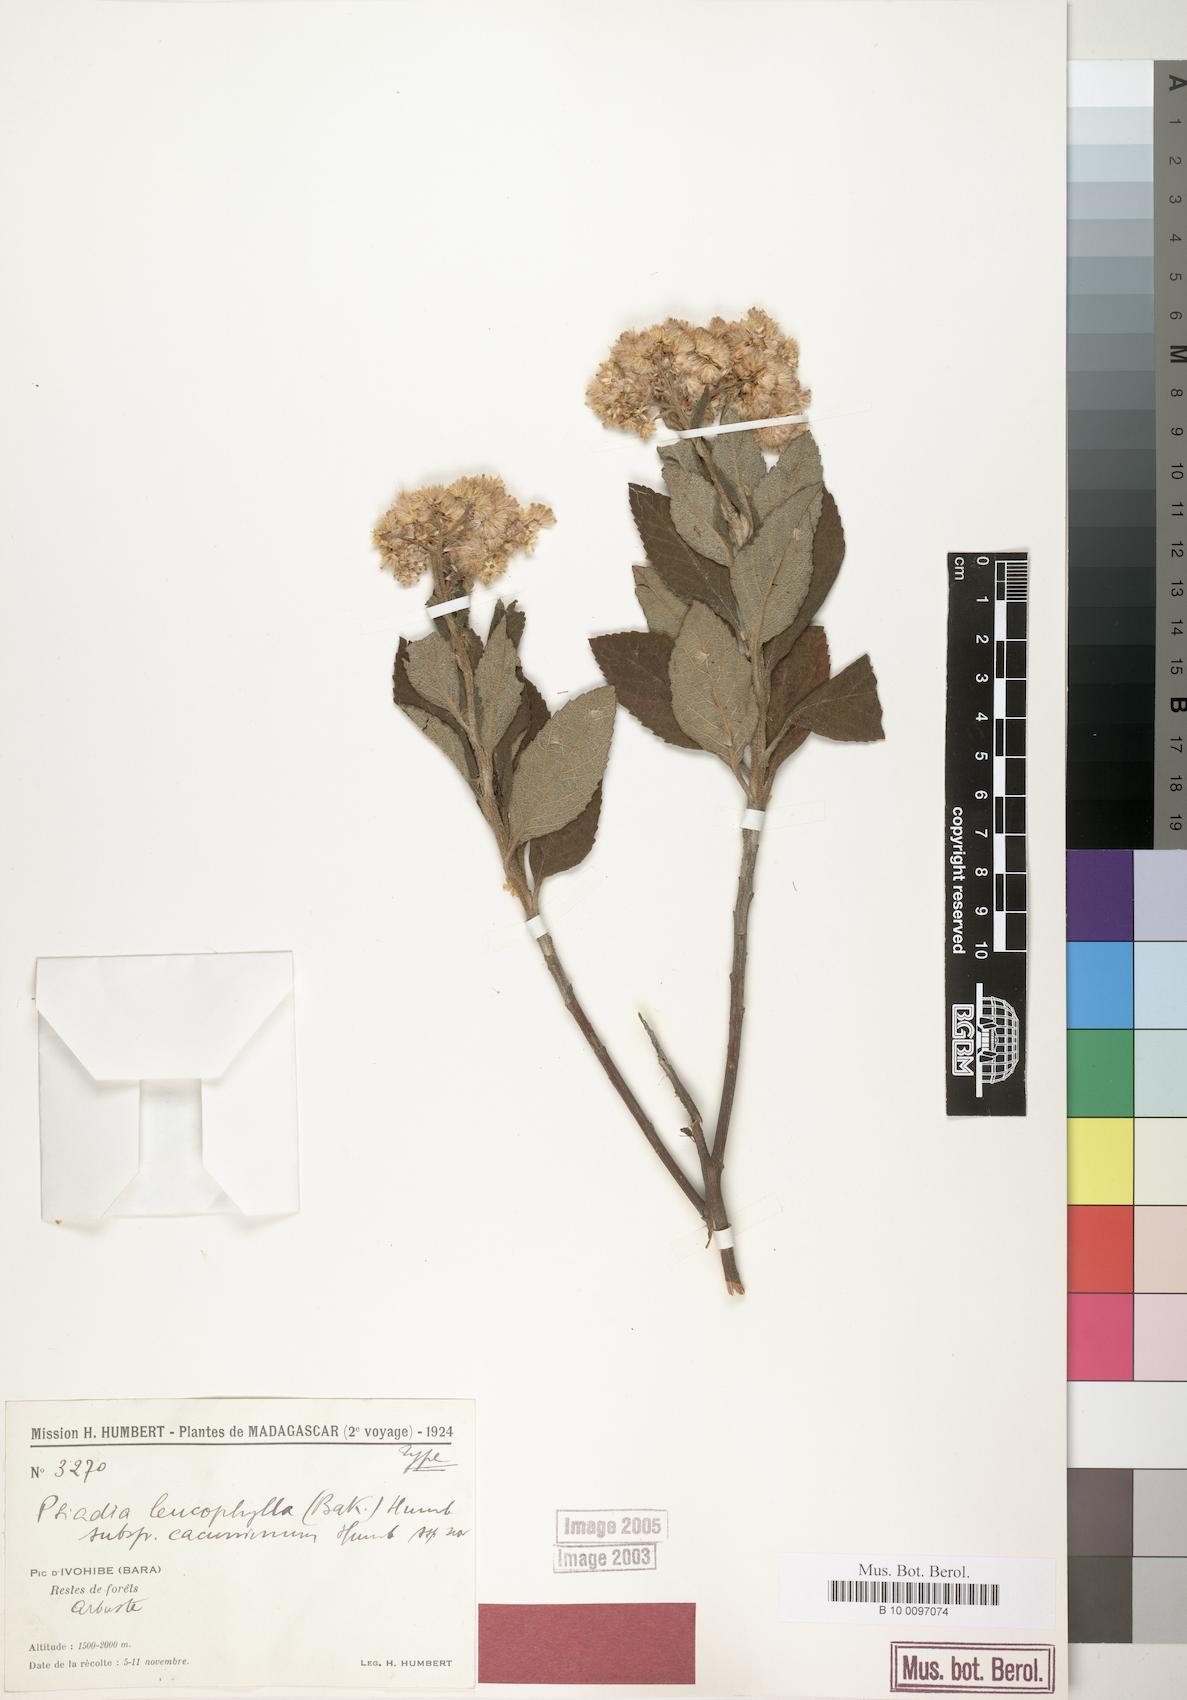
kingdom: Plantae
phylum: Tracheophyta
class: Magnoliopsida
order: Asterales
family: Asteraceae
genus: Psiadia
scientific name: Psiadia cacuminum
